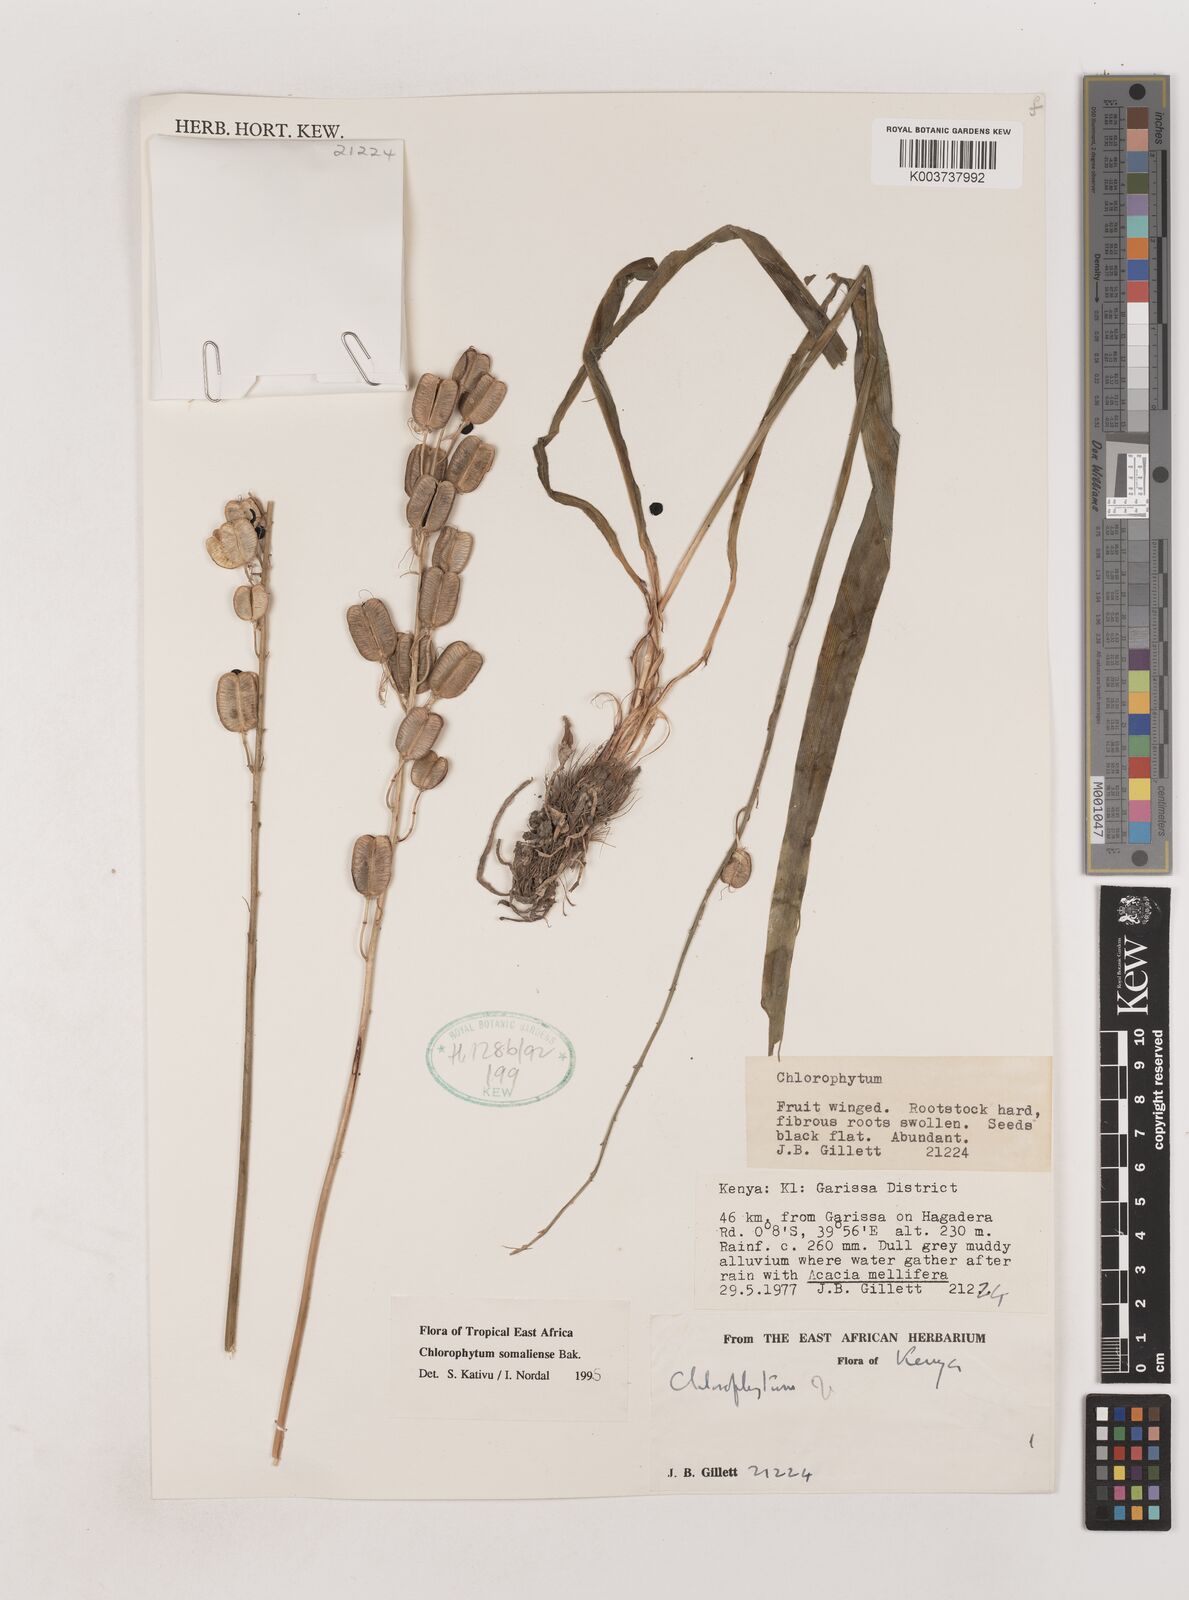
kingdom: Plantae
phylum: Tracheophyta
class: Liliopsida
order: Asparagales
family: Asparagaceae
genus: Chlorophytum
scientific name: Chlorophytum somaliense
